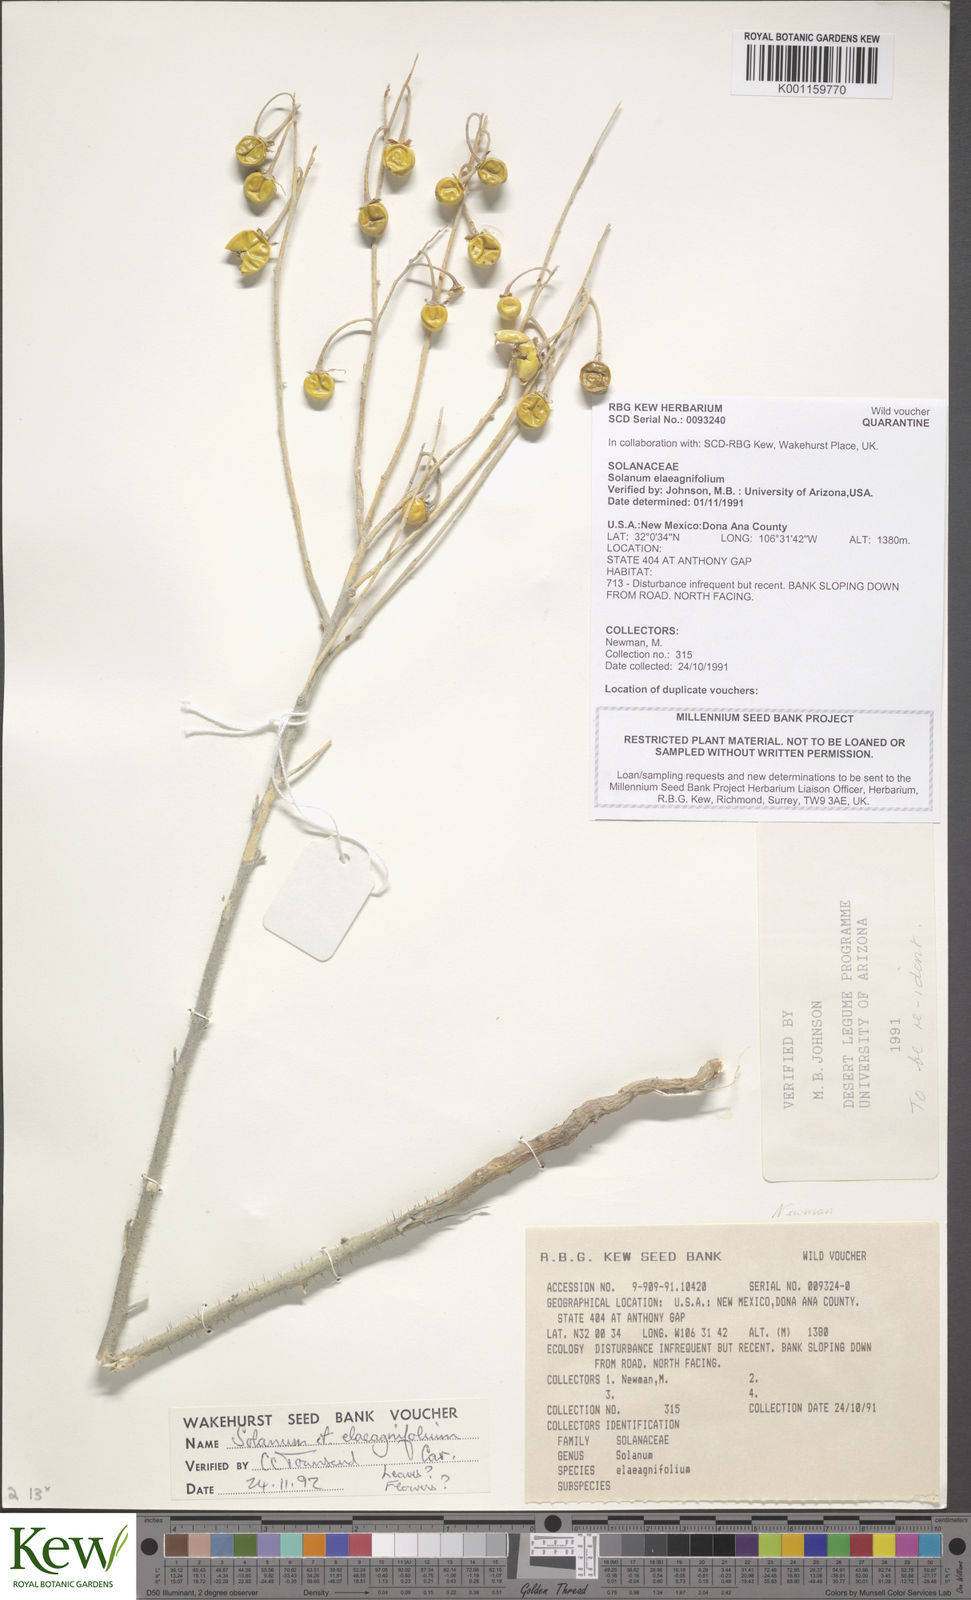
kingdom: Plantae
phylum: Tracheophyta
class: Magnoliopsida
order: Solanales
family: Solanaceae
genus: Solanum
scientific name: Solanum
